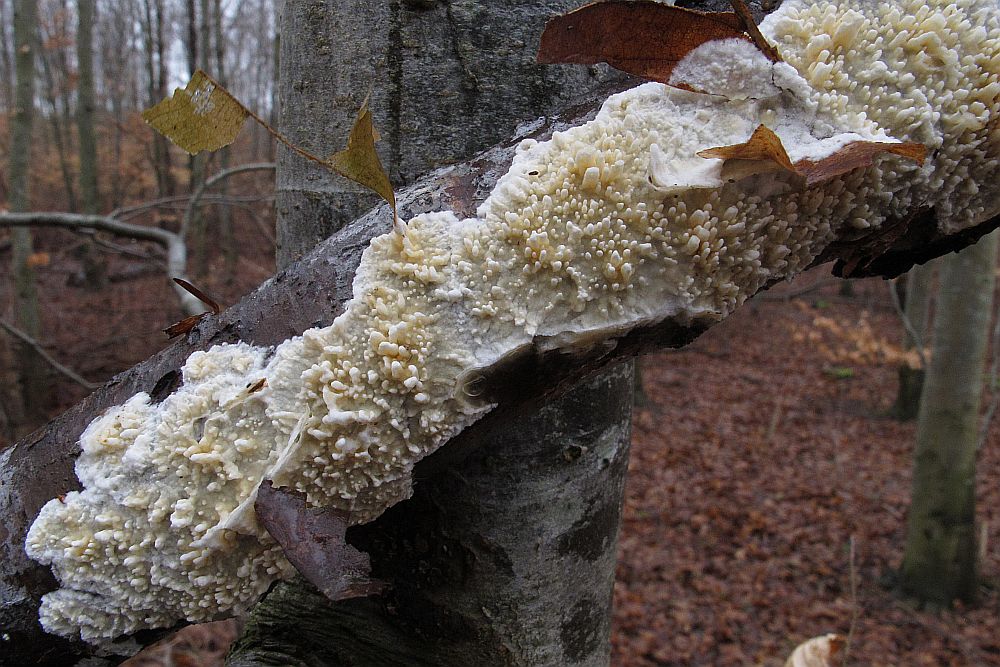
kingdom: Fungi
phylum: Basidiomycota
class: Agaricomycetes
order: Hymenochaetales
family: Schizoporaceae
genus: Xylodon
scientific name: Xylodon radula
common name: grovtandet kalkskind
